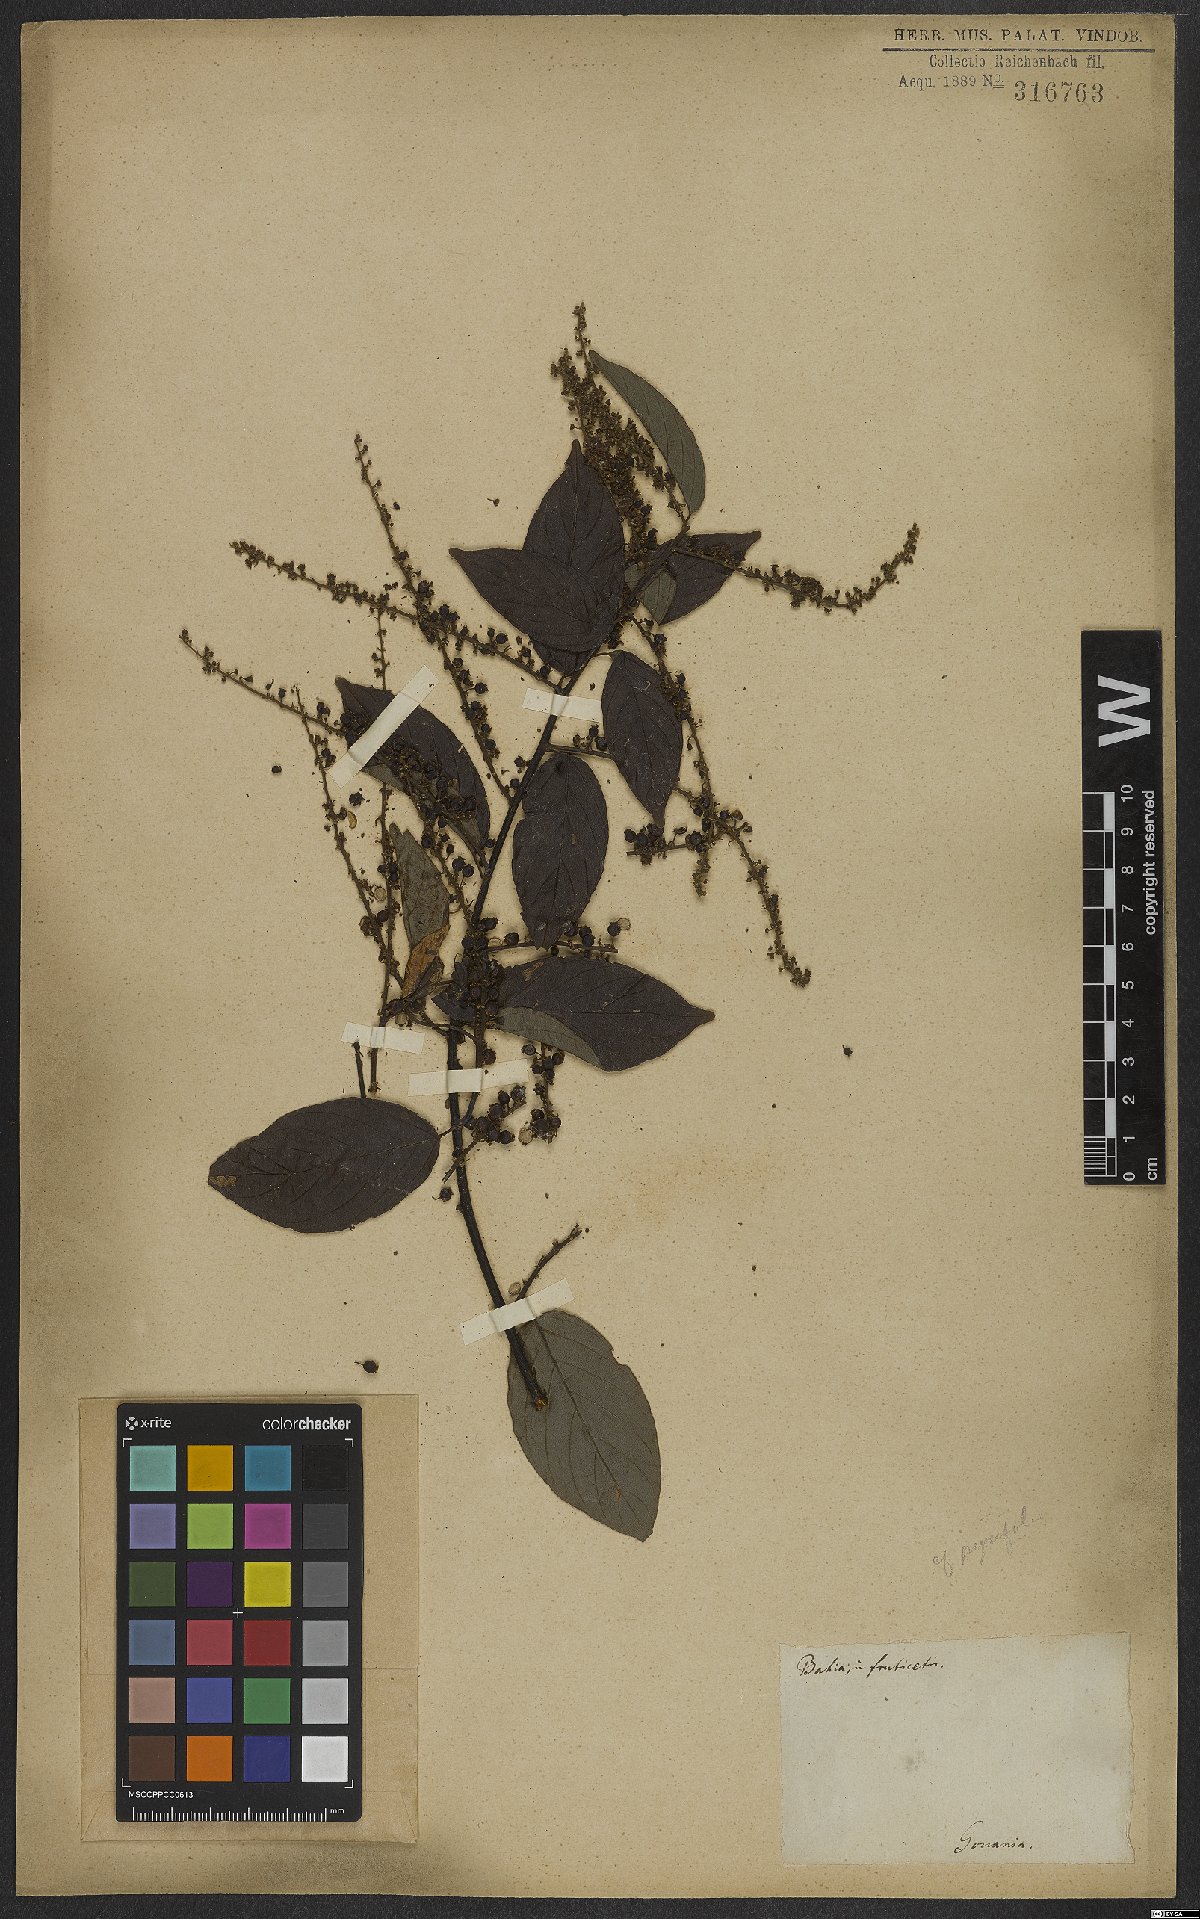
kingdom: Plantae
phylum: Tracheophyta
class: Magnoliopsida
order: Rosales
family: Rhamnaceae
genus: Gouania
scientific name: Gouania pyrifolia
